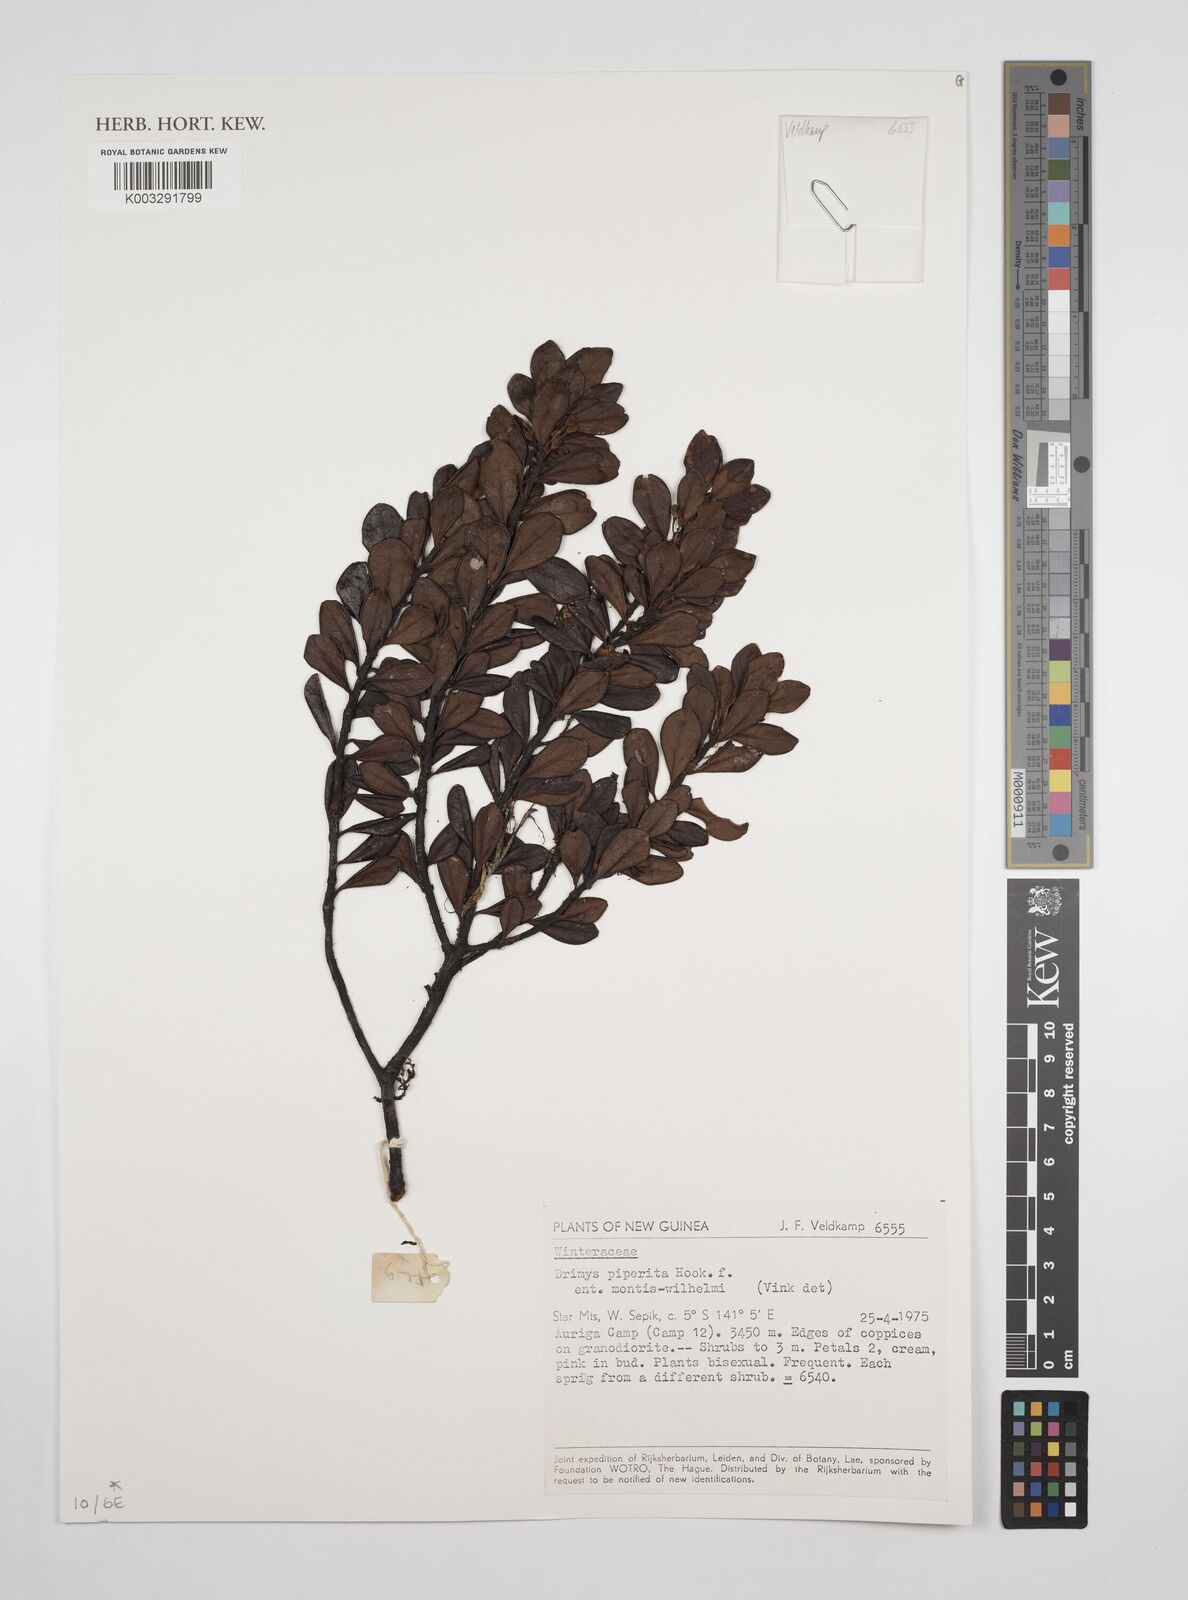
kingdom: Plantae
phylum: Tracheophyta
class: Magnoliopsida
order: Canellales
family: Winteraceae
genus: Drimys
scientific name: Drimys piperita
